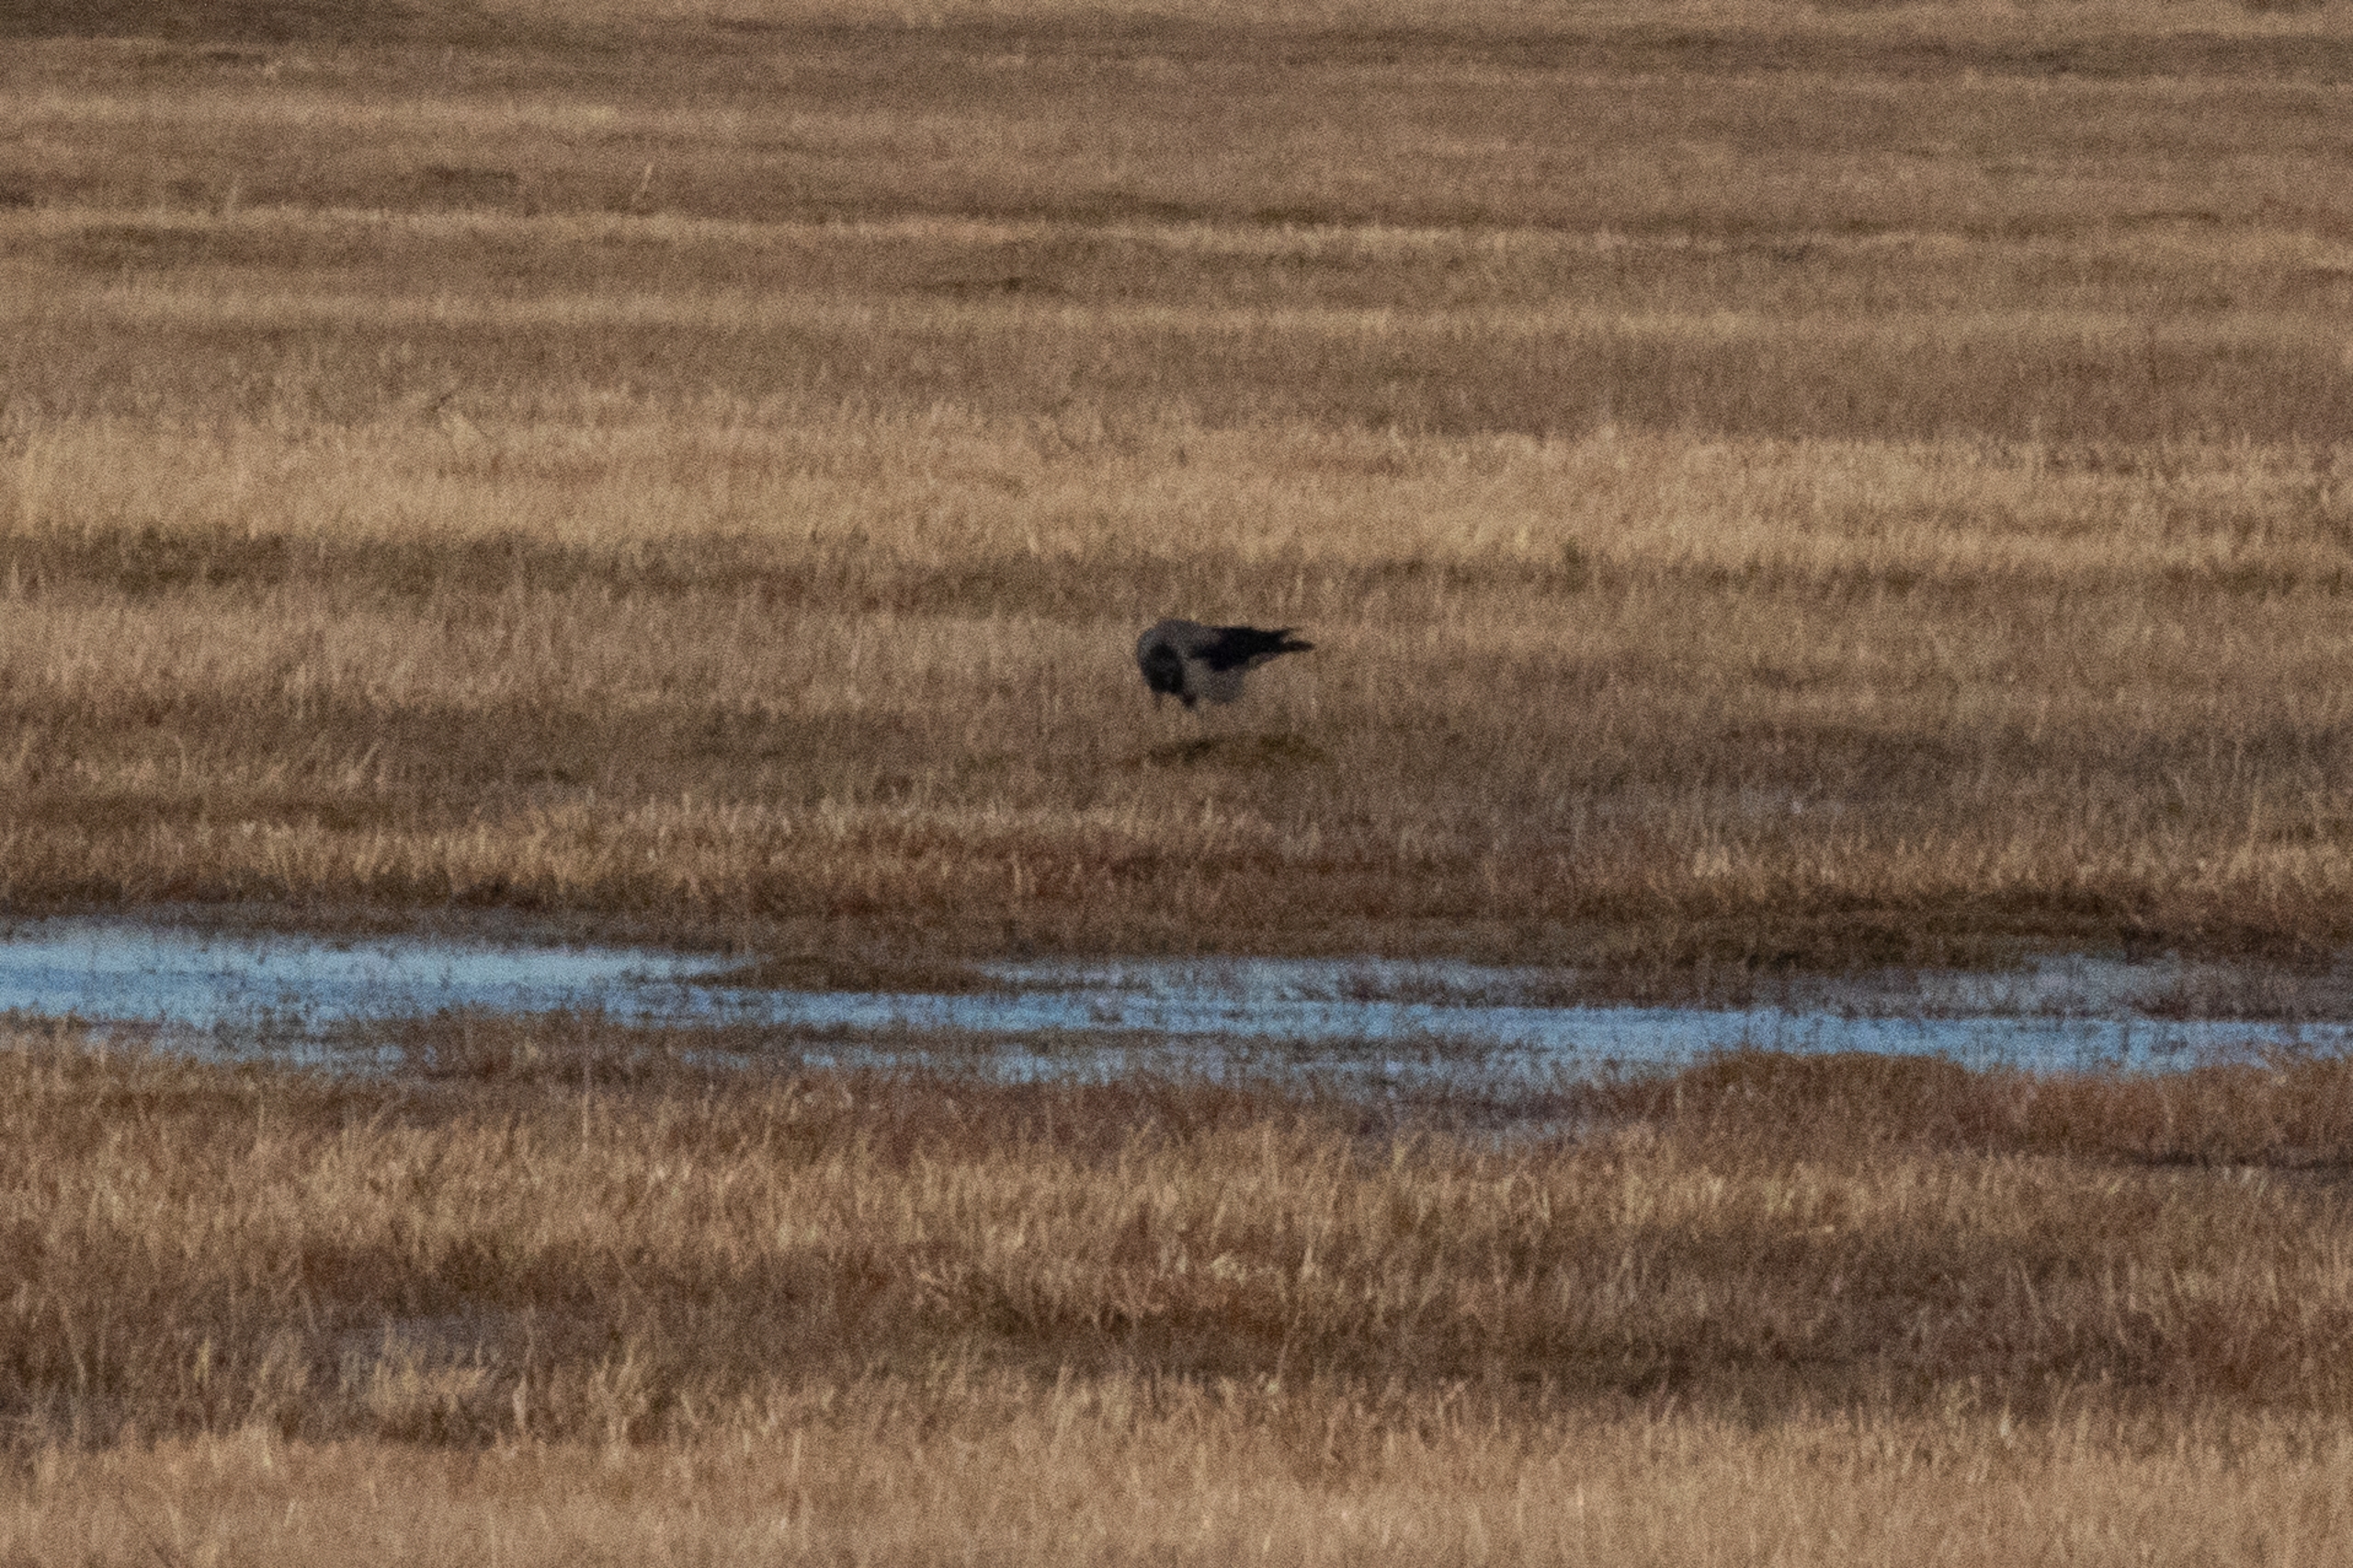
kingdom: Animalia
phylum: Chordata
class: Aves
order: Passeriformes
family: Corvidae
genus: Corvus
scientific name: Corvus cornix
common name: Gråkrage
